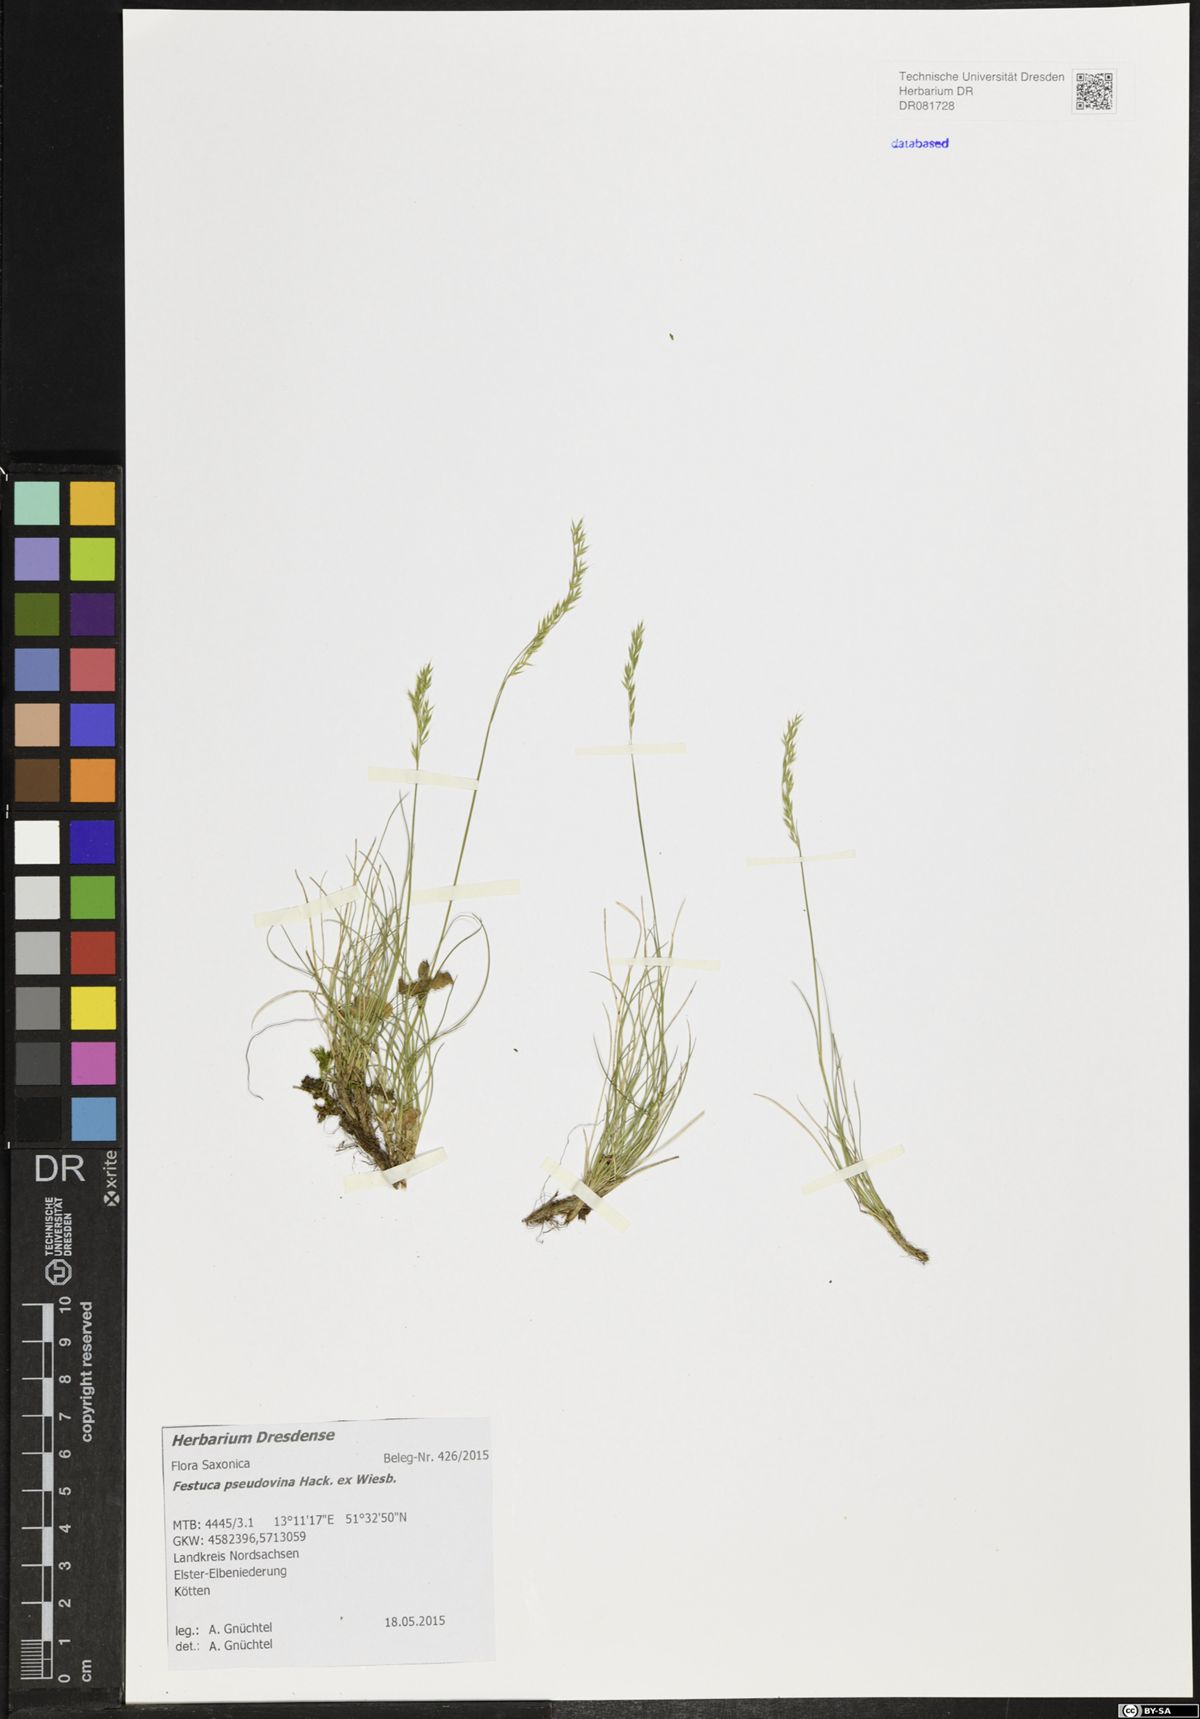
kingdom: Plantae
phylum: Tracheophyta
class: Liliopsida
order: Poales
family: Poaceae
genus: Festuca
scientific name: Festuca pulchra
